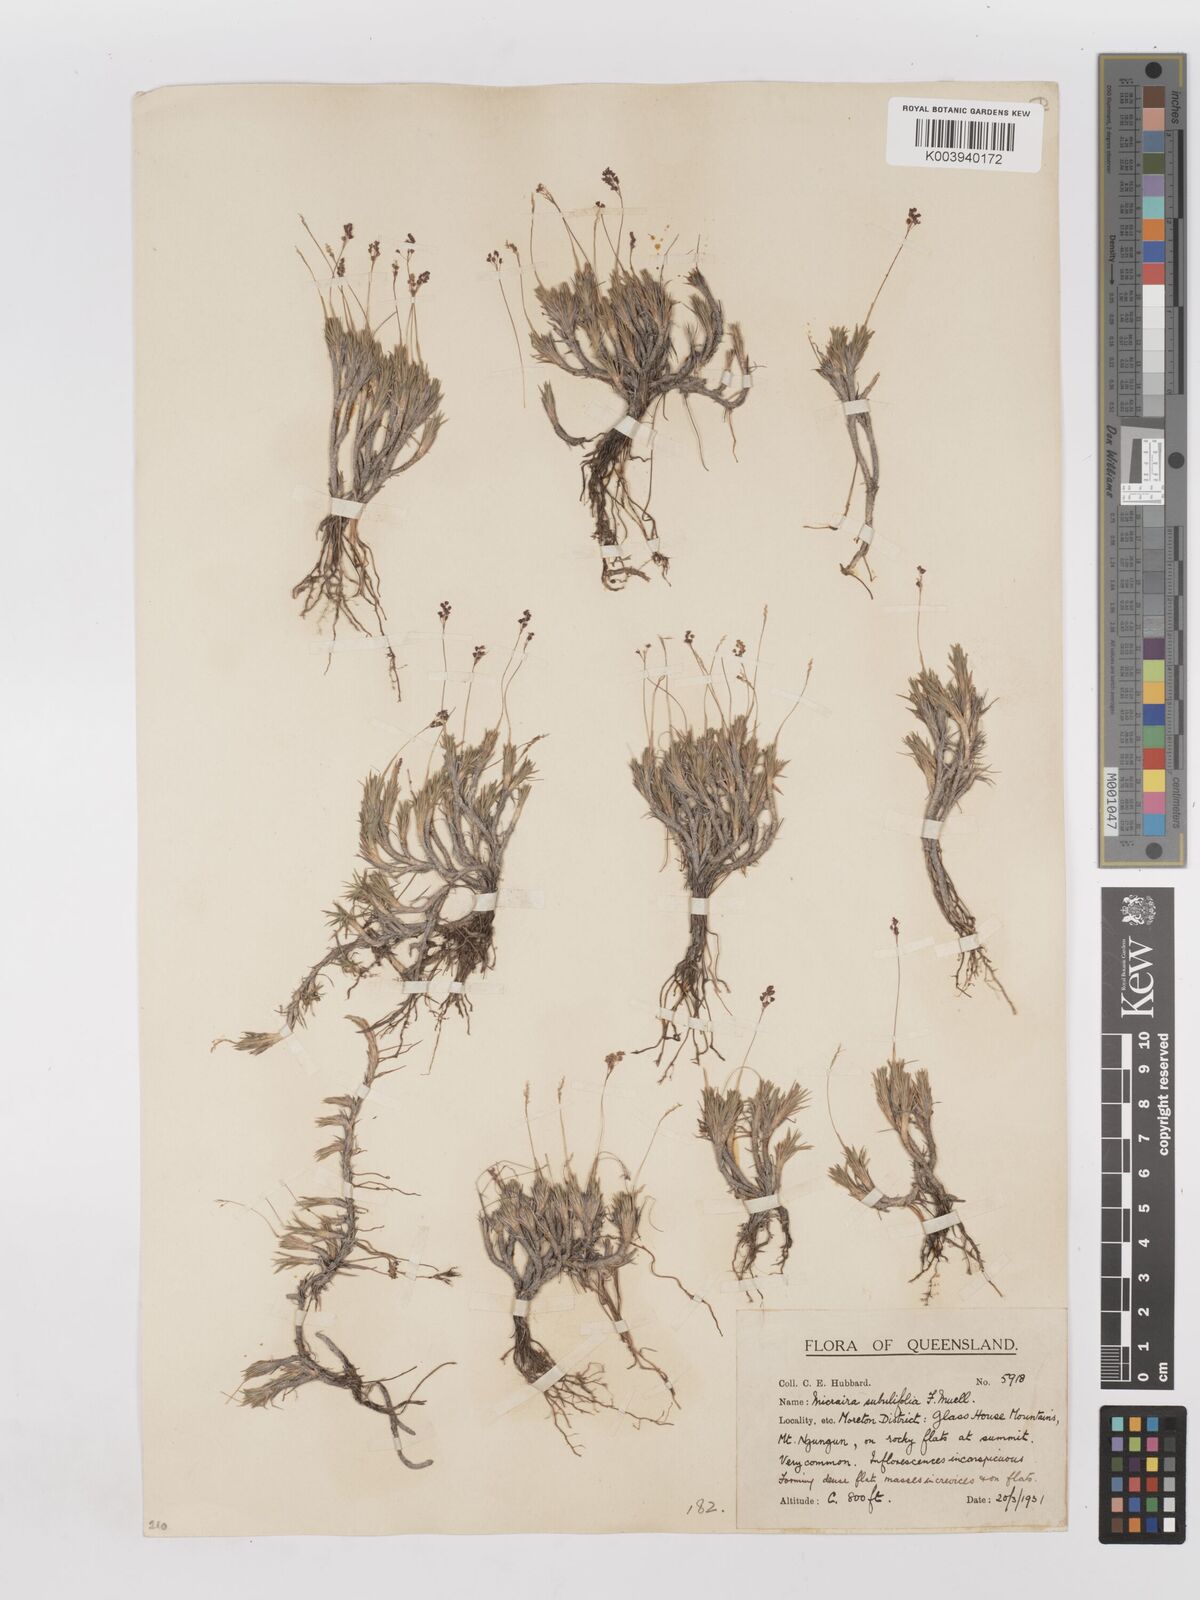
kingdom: Plantae
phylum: Tracheophyta
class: Liliopsida
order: Poales
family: Poaceae
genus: Micraira
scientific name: Micraira subulifolia
